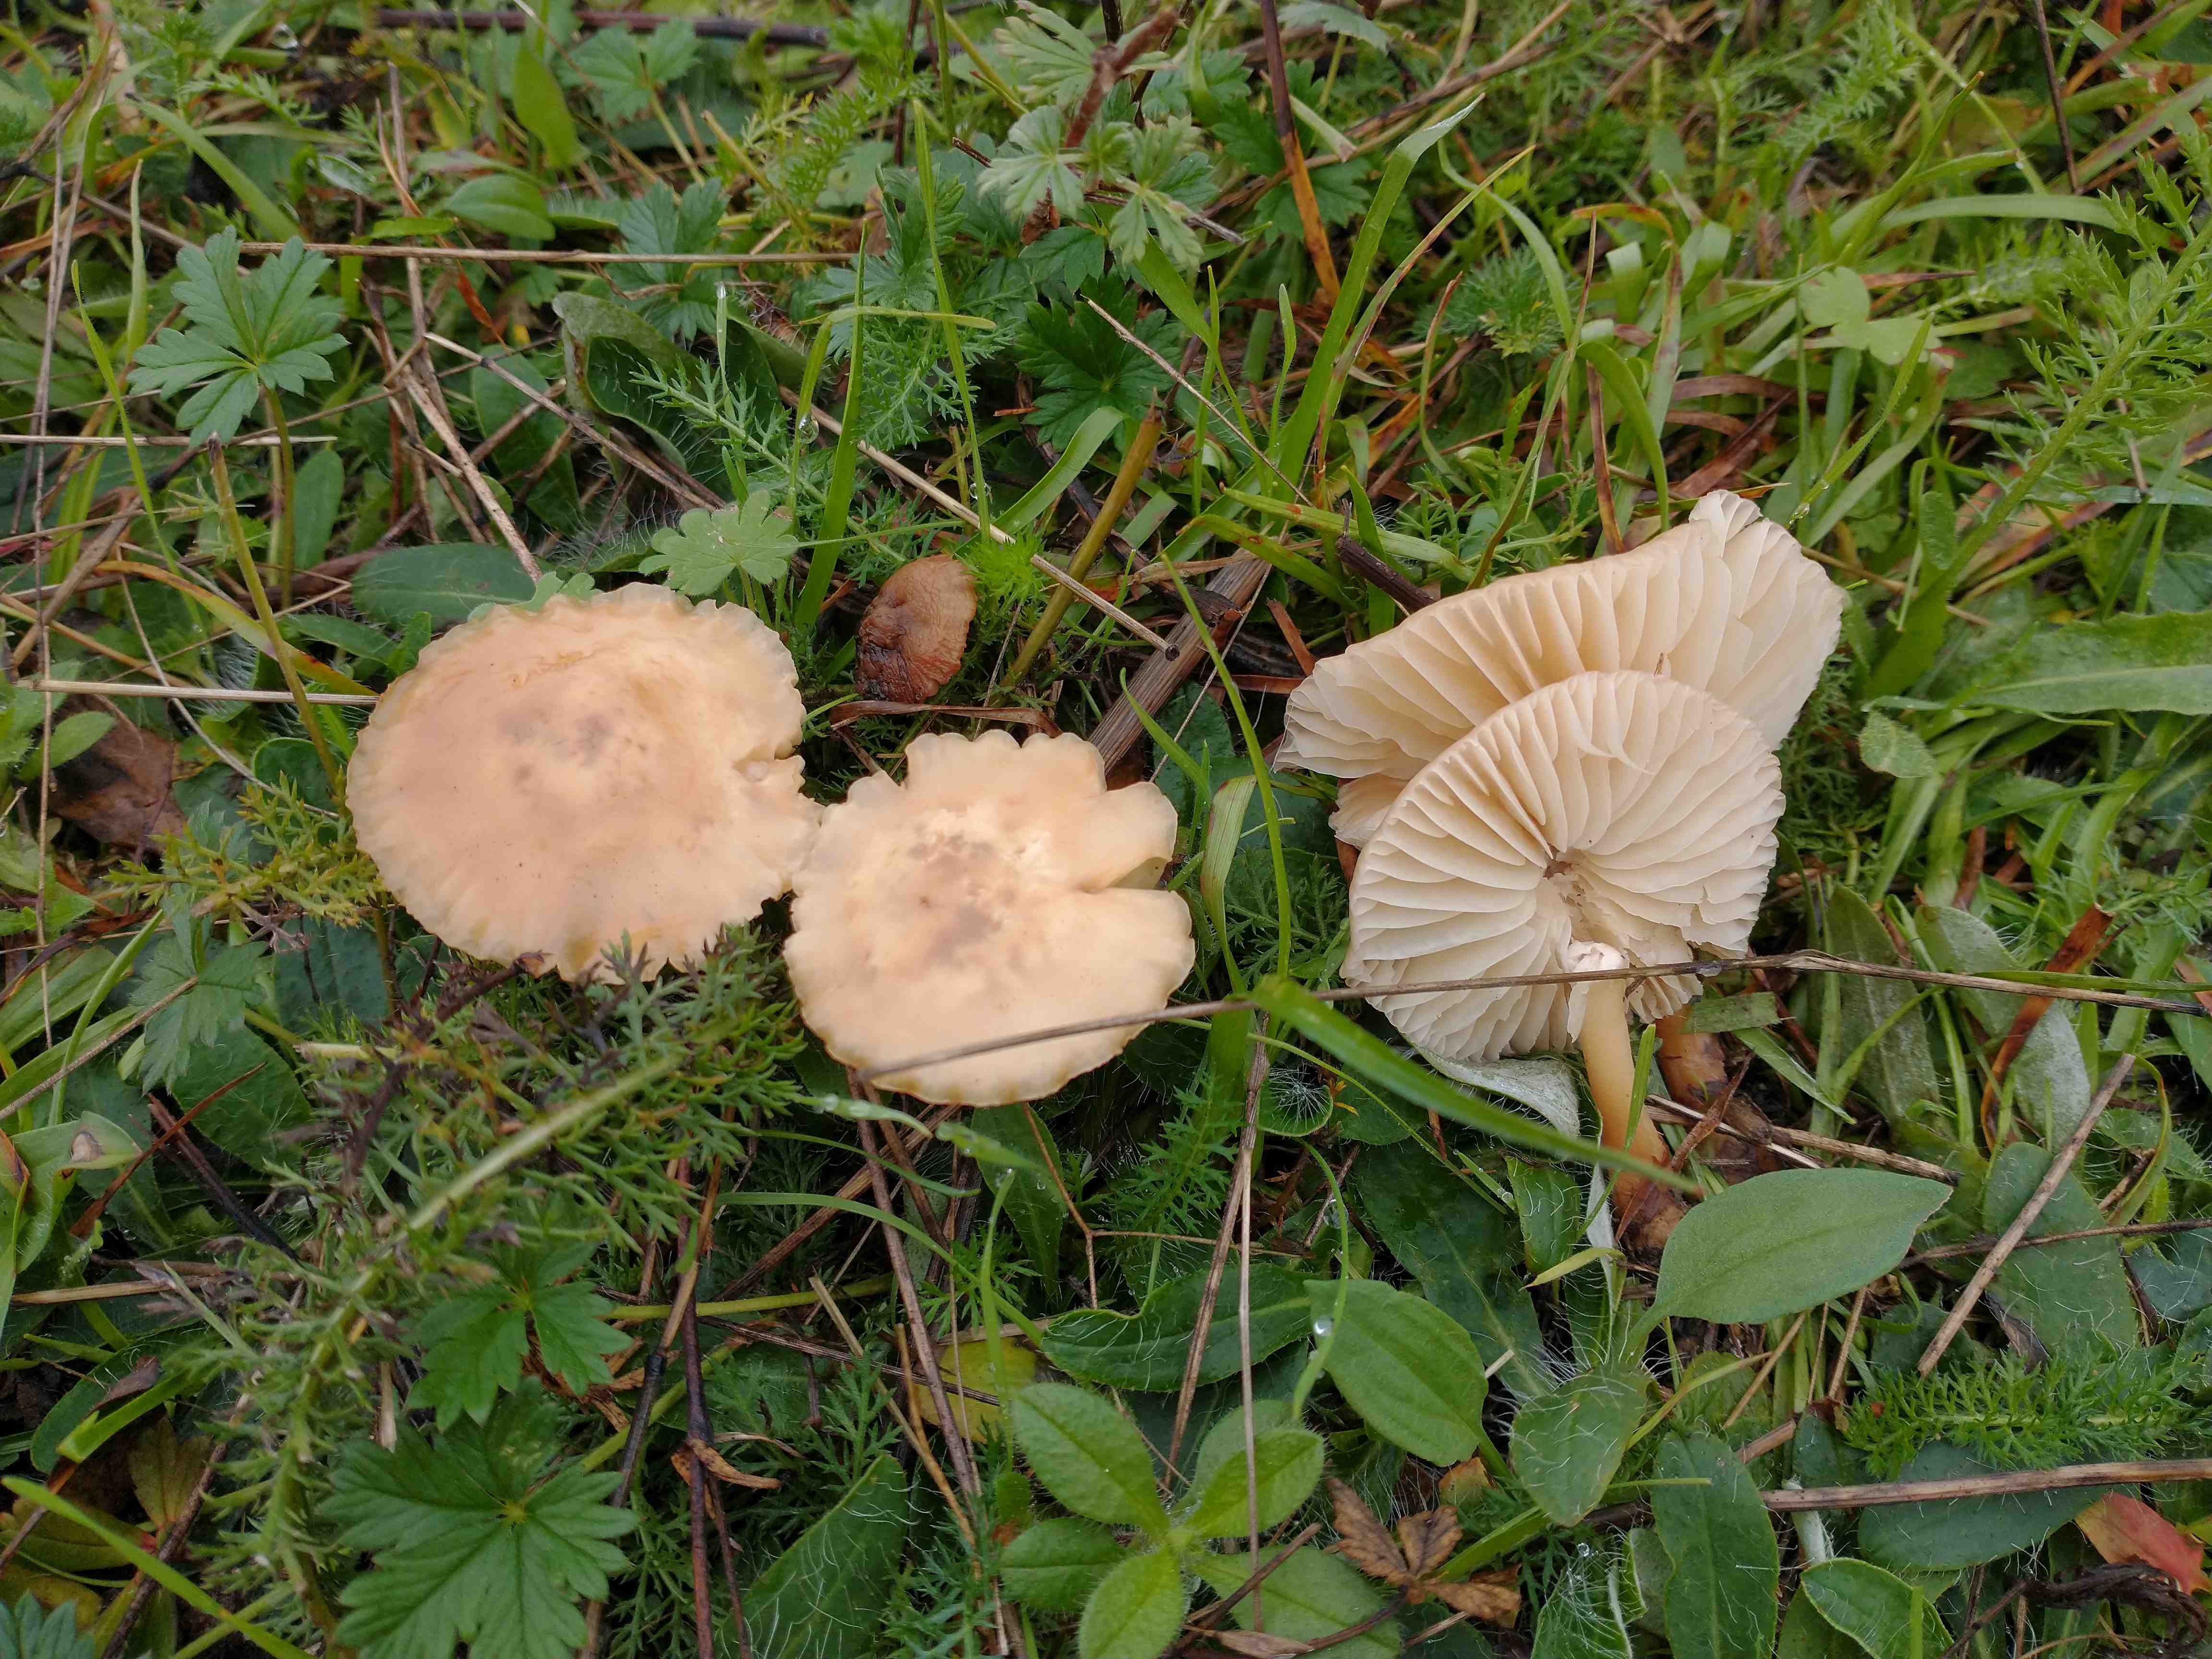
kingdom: Fungi
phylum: Basidiomycota
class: Agaricomycetes
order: Agaricales
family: Marasmiaceae
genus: Marasmius
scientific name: Marasmius oreades
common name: elledans-bruskhat
